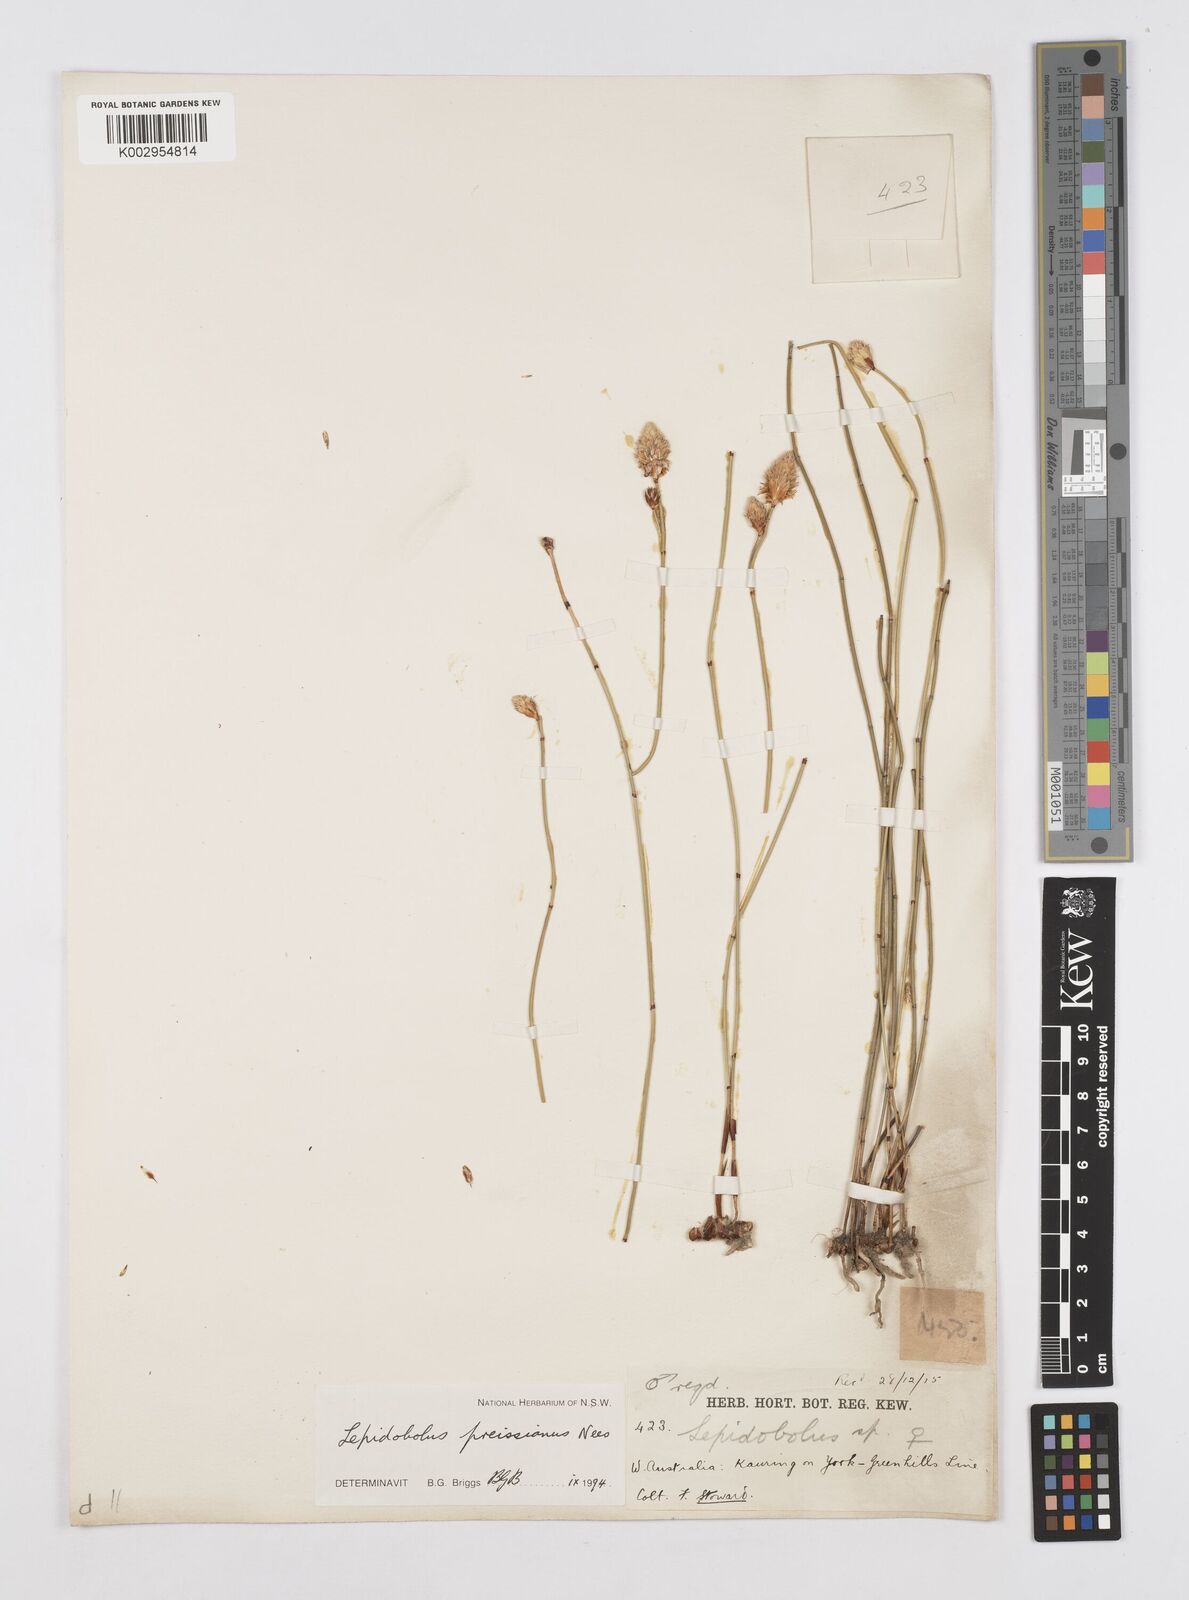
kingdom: Plantae
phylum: Tracheophyta
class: Liliopsida
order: Poales
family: Restionaceae
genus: Lepidobolus
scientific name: Lepidobolus preissianus
